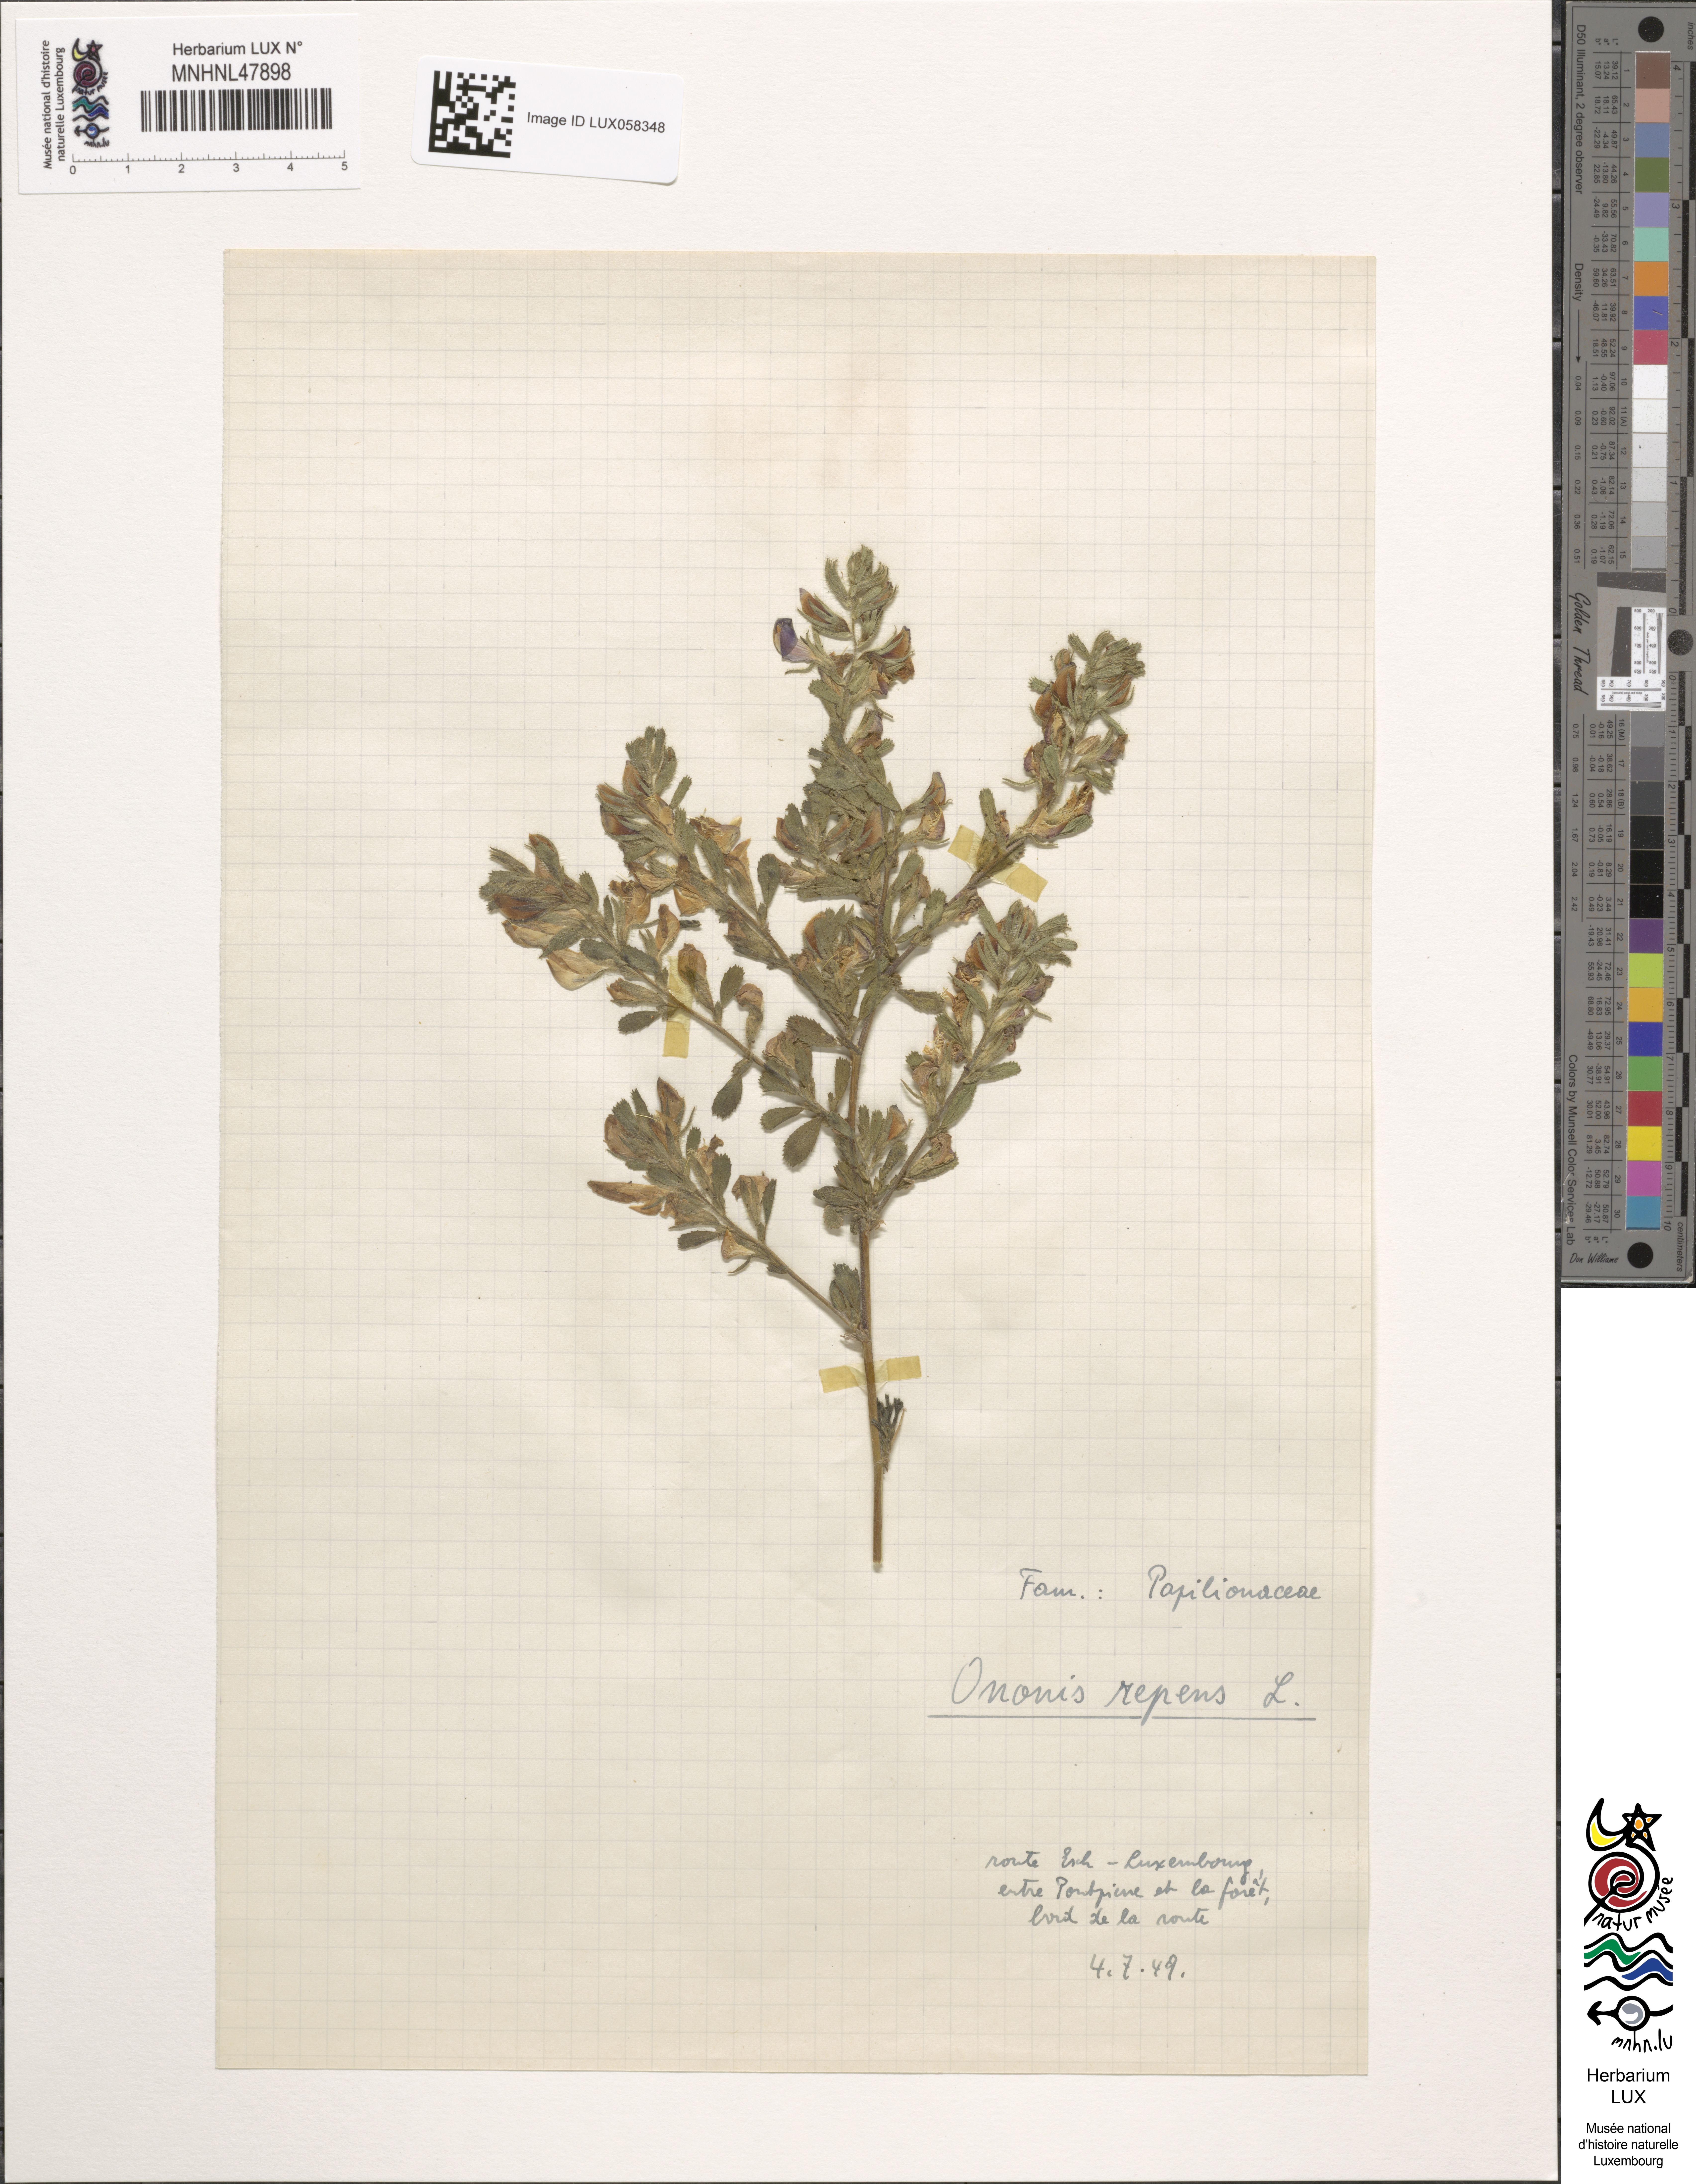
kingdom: Plantae
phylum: Tracheophyta
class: Magnoliopsida
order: Fabales
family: Fabaceae
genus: Ononis
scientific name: Ononis spinosa
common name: Spiny restharrow
